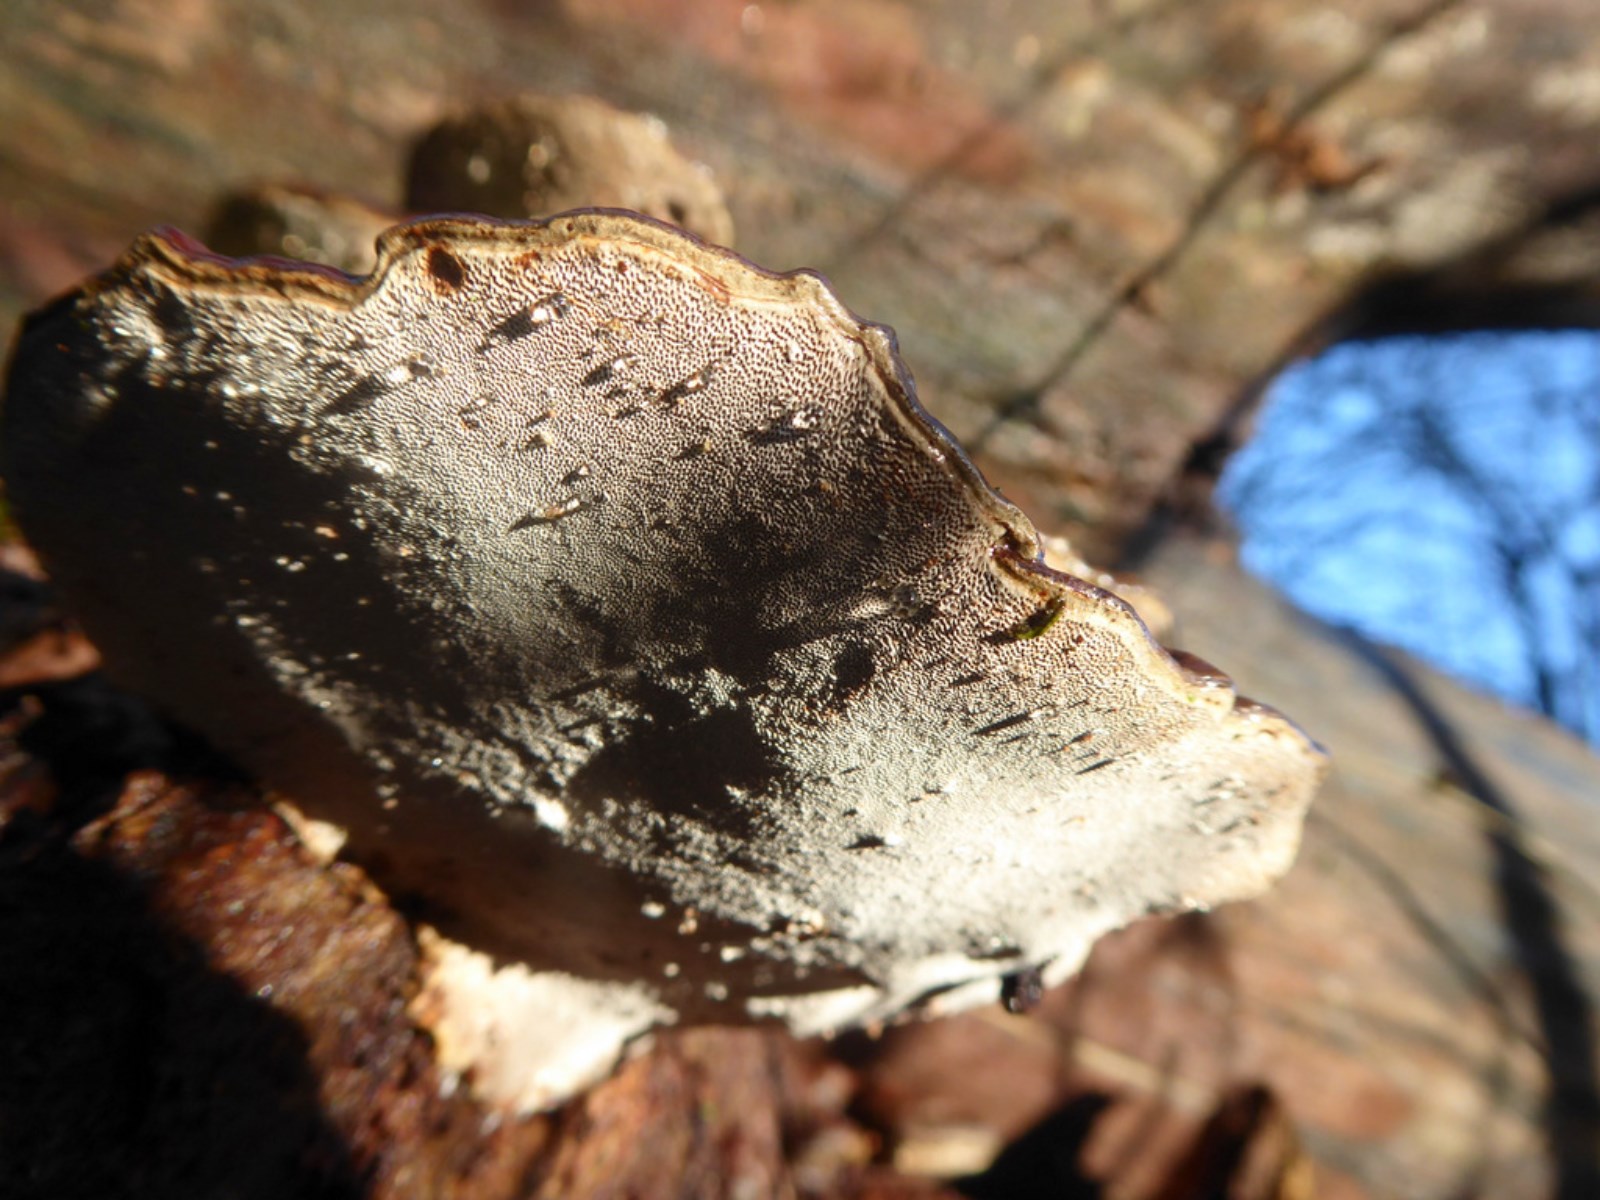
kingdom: Fungi
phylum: Basidiomycota
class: Agaricomycetes
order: Polyporales
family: Polyporaceae
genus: Ganoderma
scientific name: Ganoderma applanatum
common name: flad lakporesvamp
